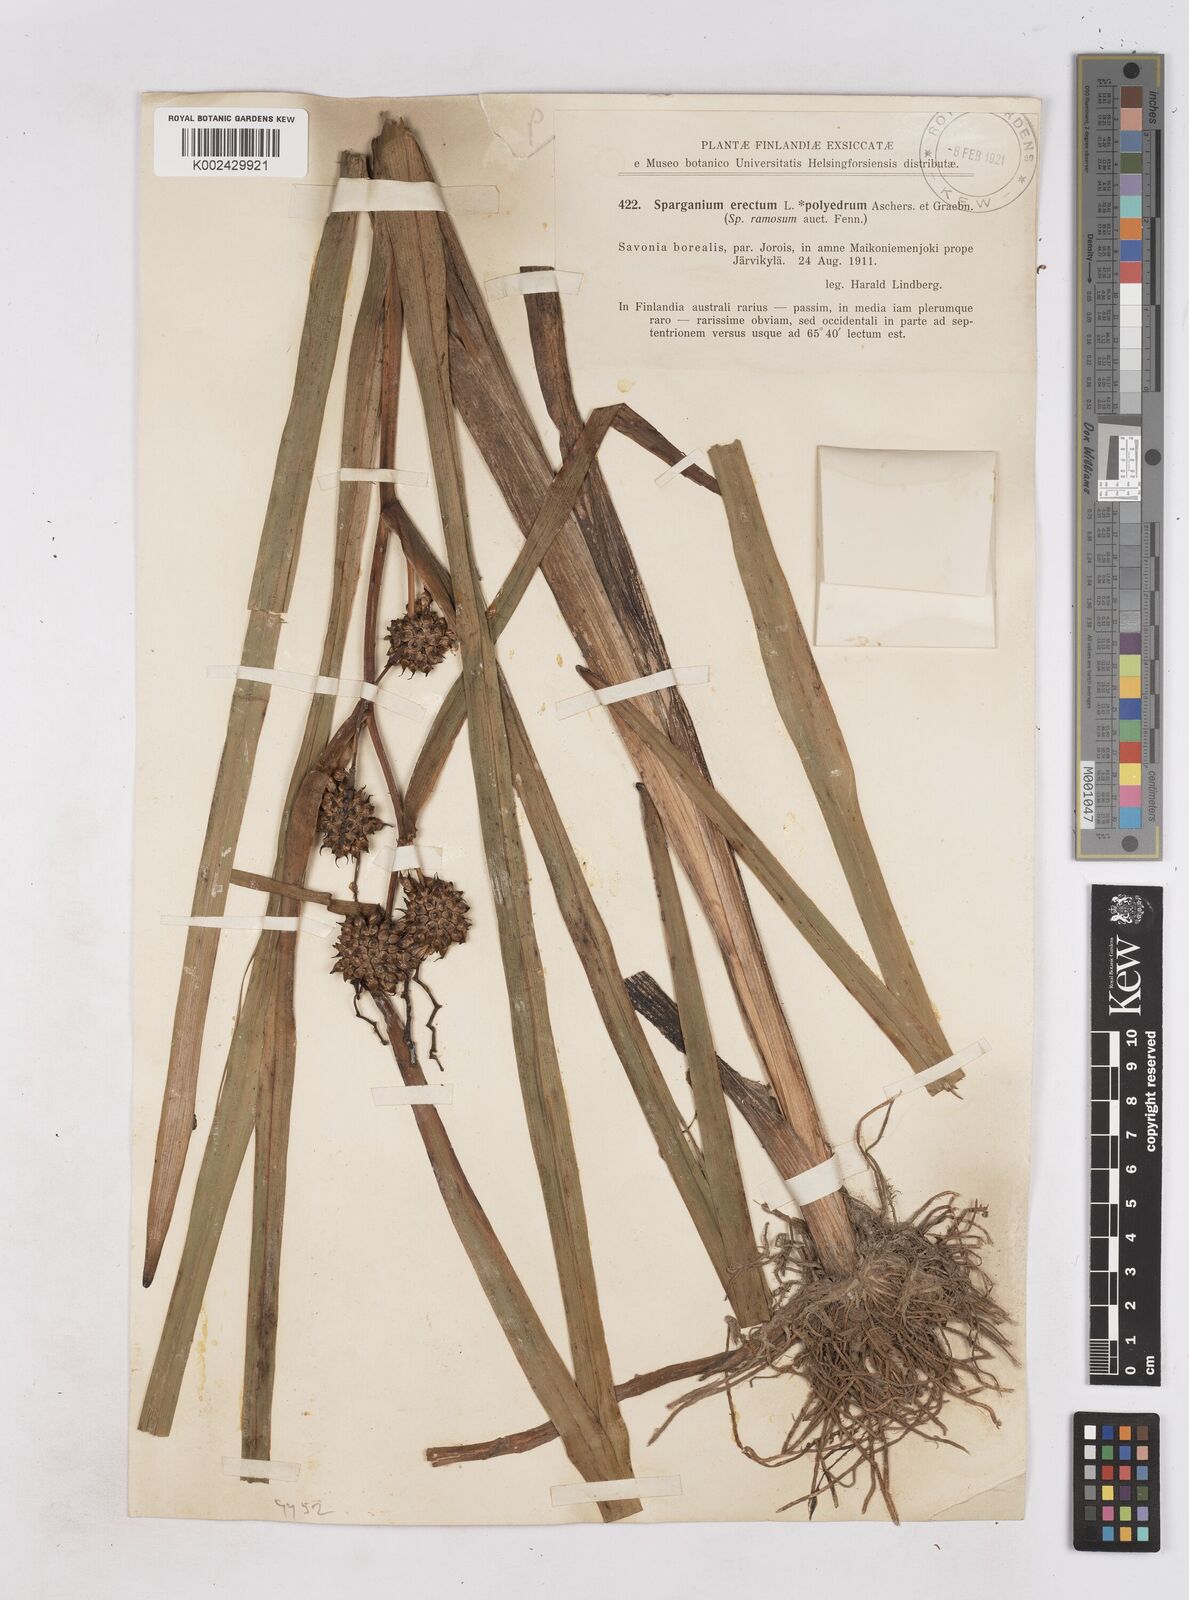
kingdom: Plantae
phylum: Tracheophyta
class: Liliopsida
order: Poales
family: Typhaceae
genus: Sparganium
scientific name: Sparganium erectum
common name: Branched bur-reed
